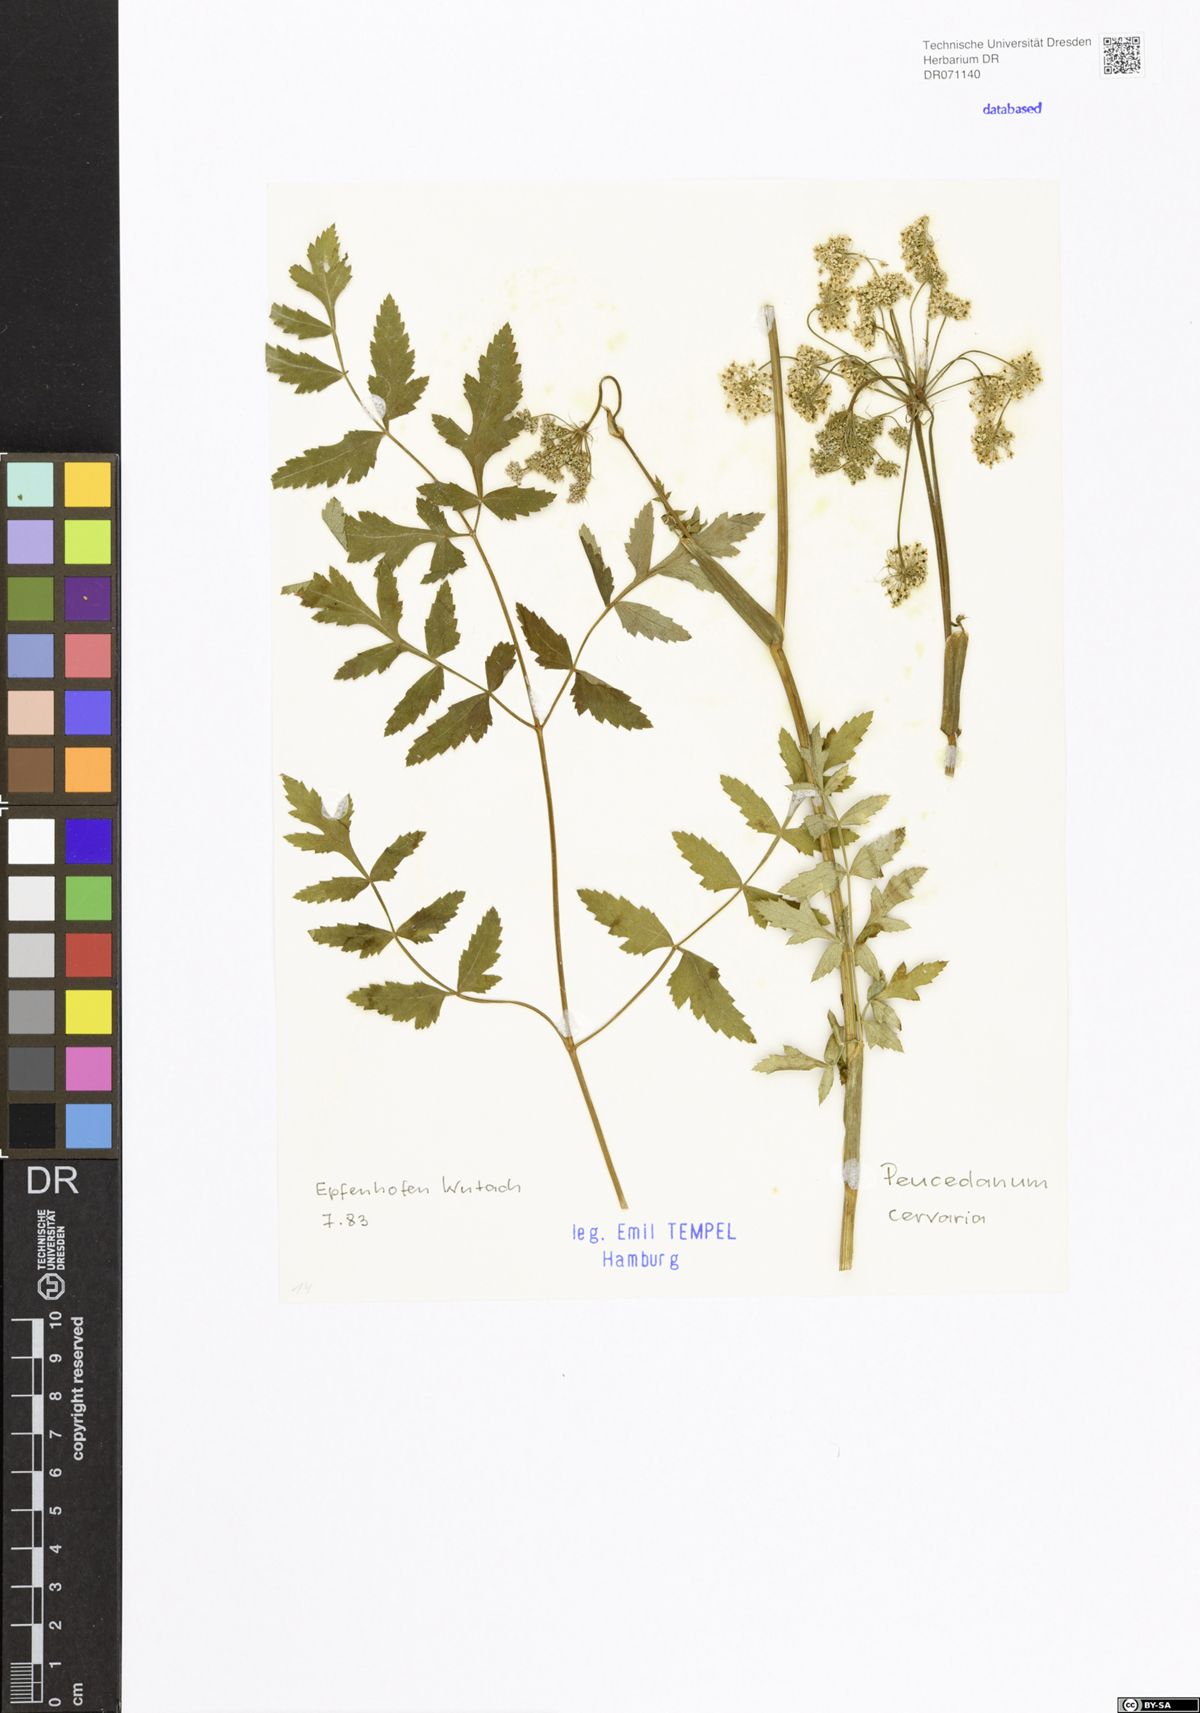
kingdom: Plantae
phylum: Tracheophyta
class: Magnoliopsida
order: Apiales
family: Apiaceae
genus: Cervaria
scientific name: Cervaria rivini
